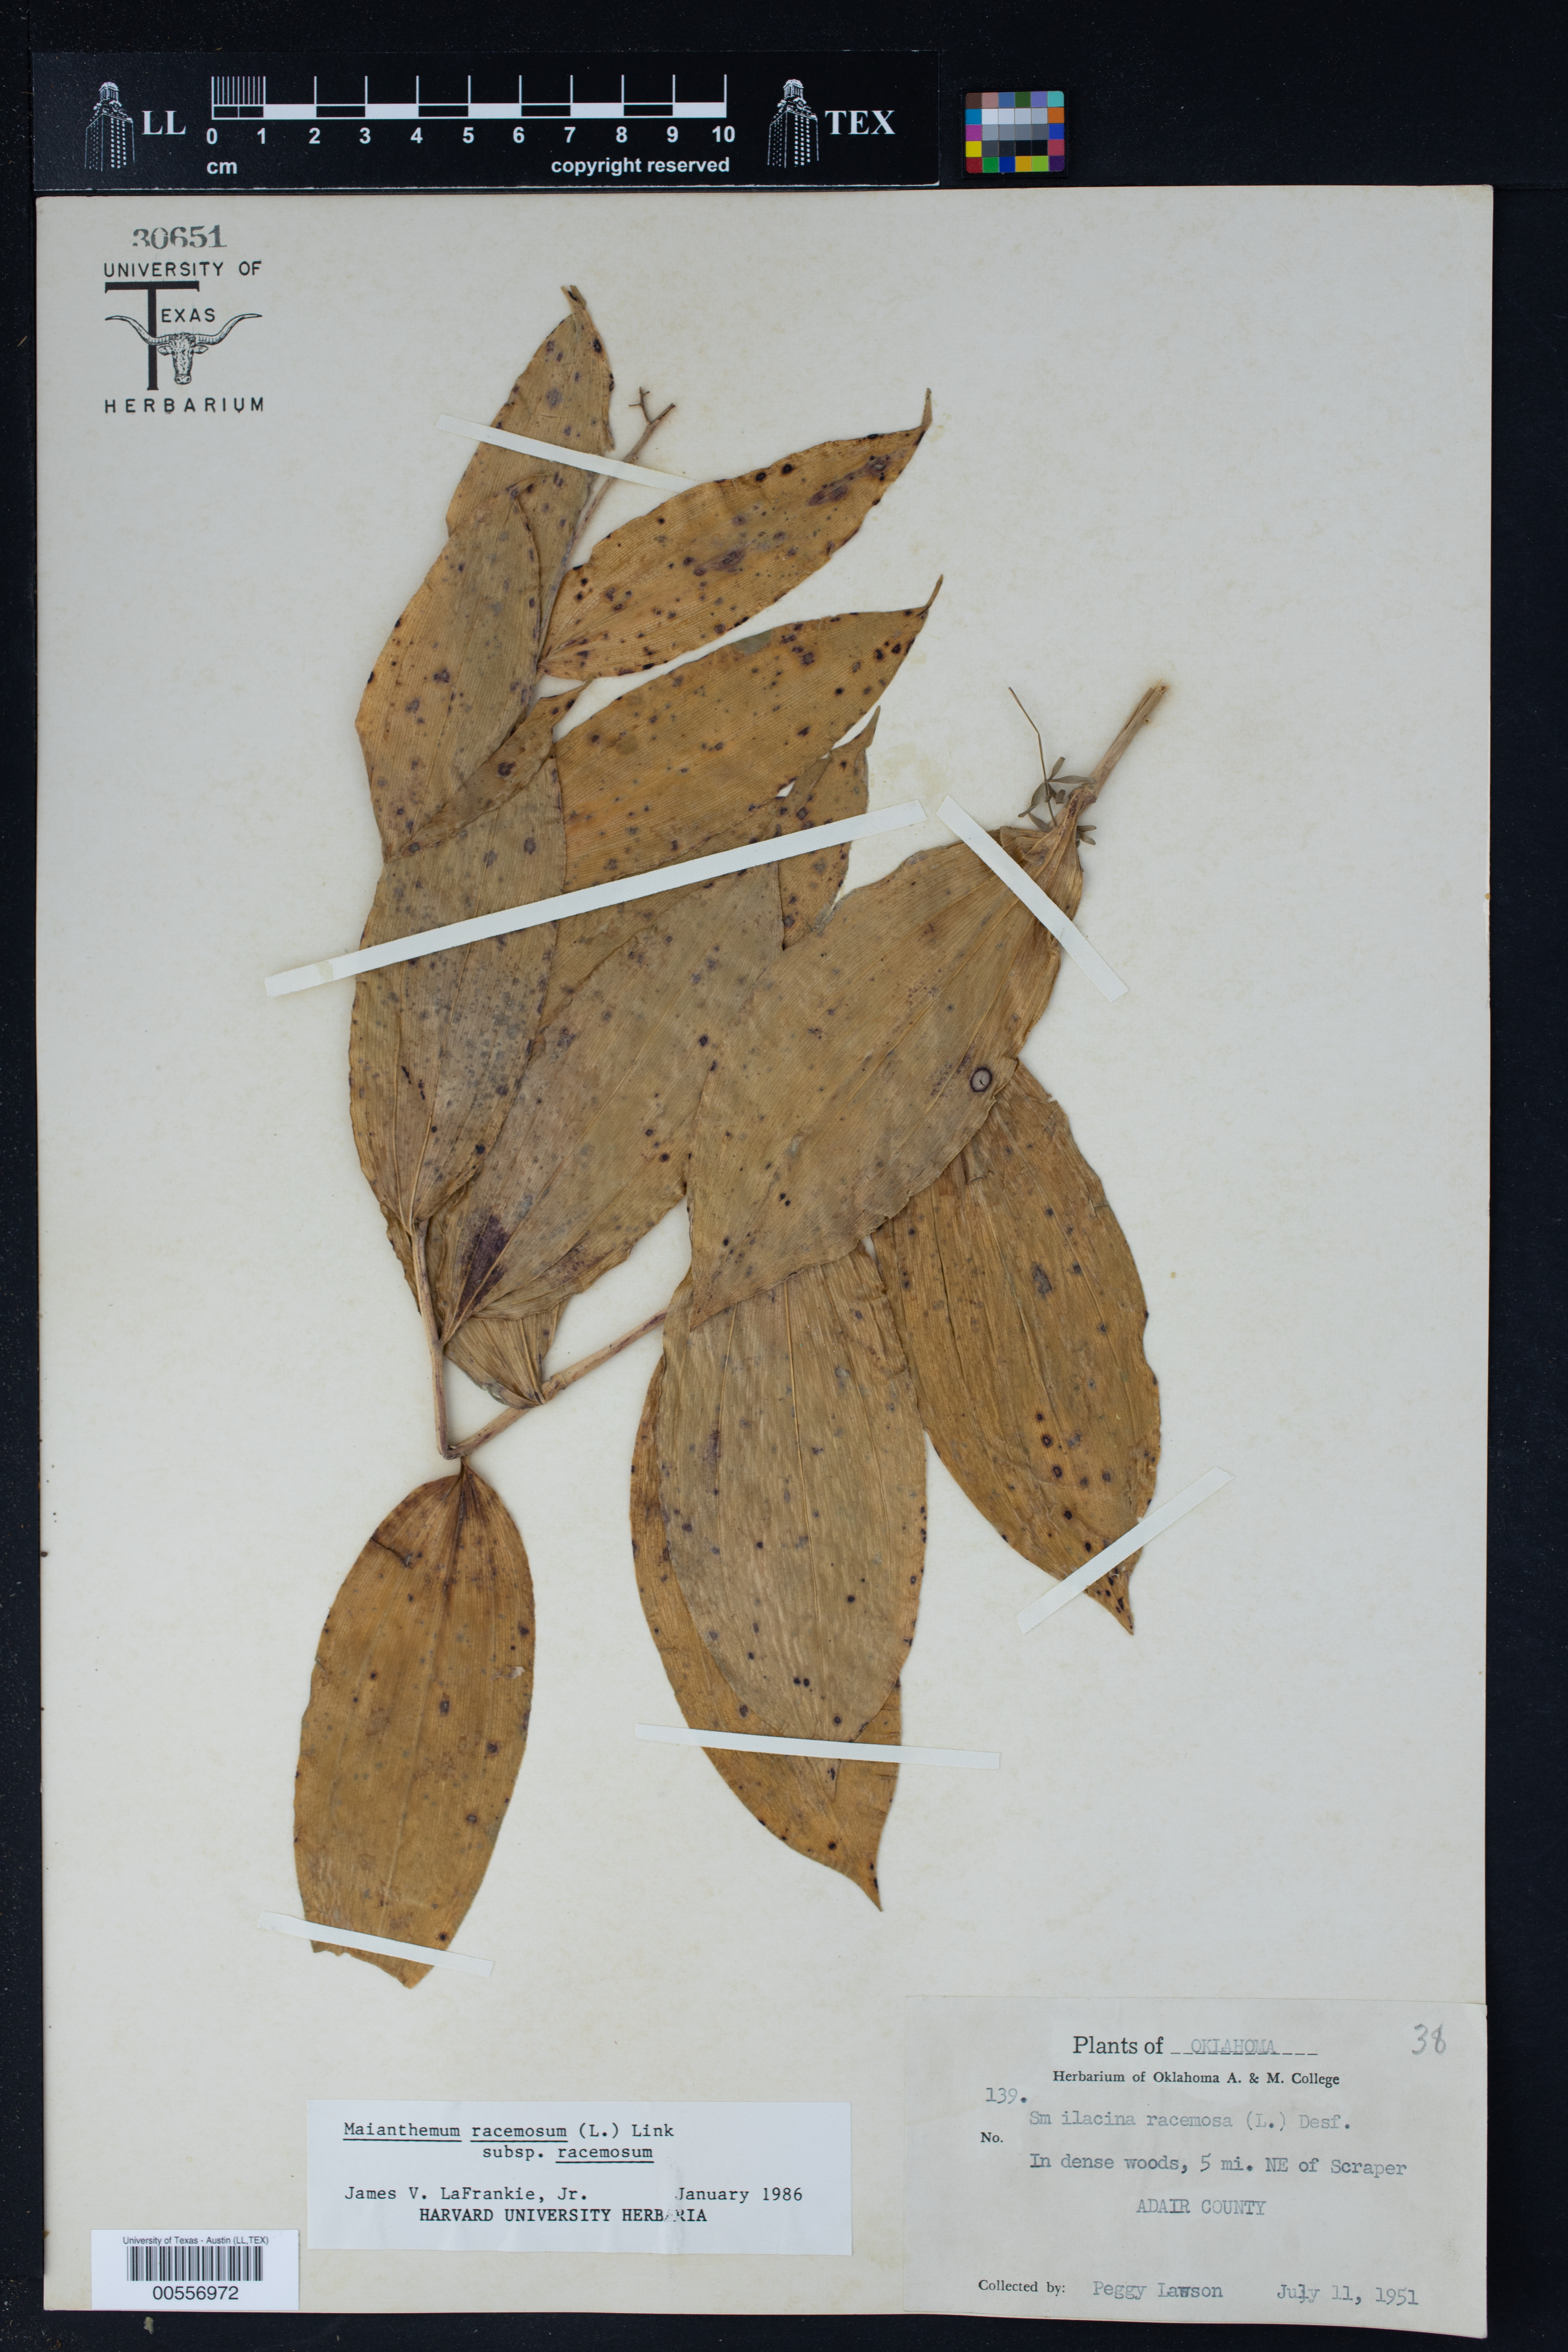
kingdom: Plantae
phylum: Tracheophyta
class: Liliopsida
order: Asparagales
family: Asparagaceae
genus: Maianthemum
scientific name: Maianthemum racemosum
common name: False spikenard
